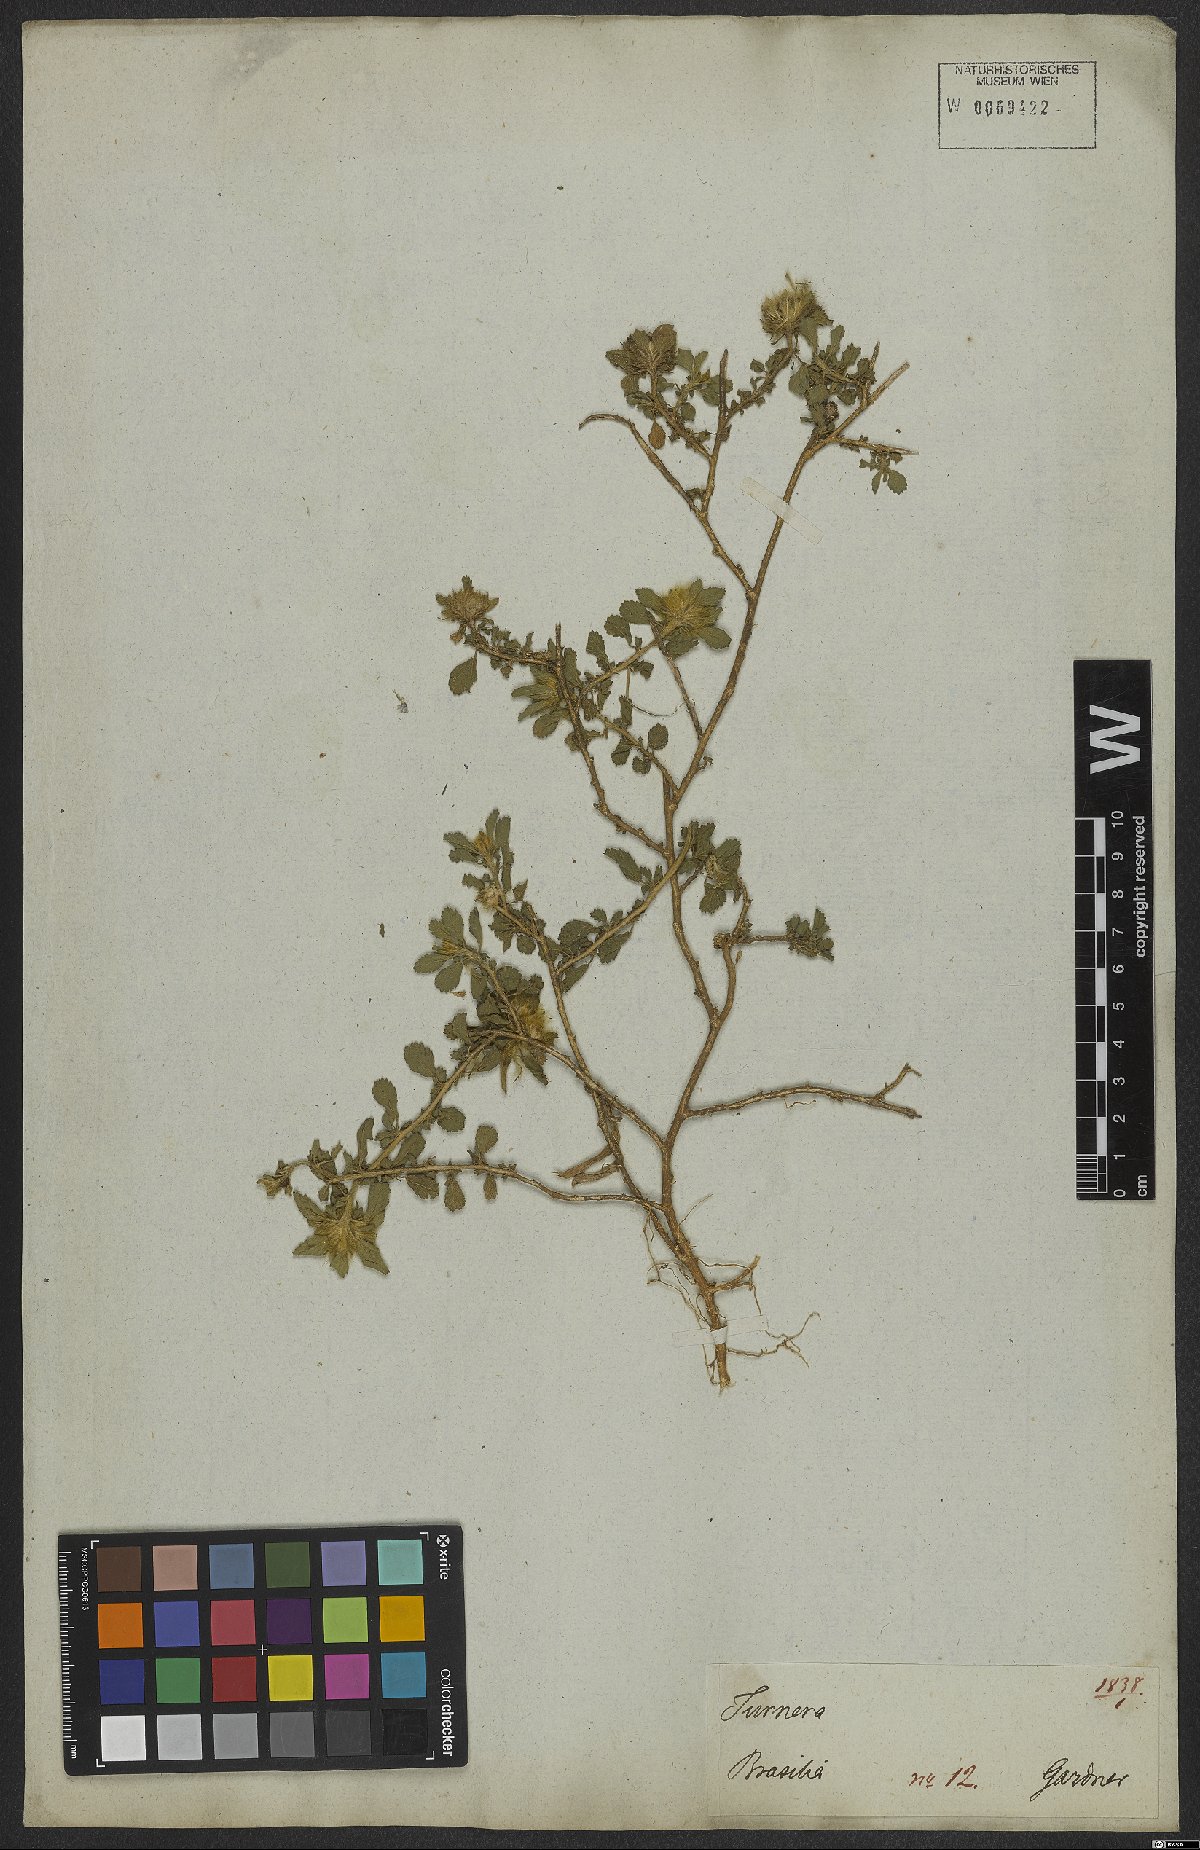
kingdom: Plantae
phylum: Tracheophyta
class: Magnoliopsida
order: Malvales
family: Malvaceae
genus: Sida
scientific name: Sida ciliaris
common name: Bracted fanpetals
